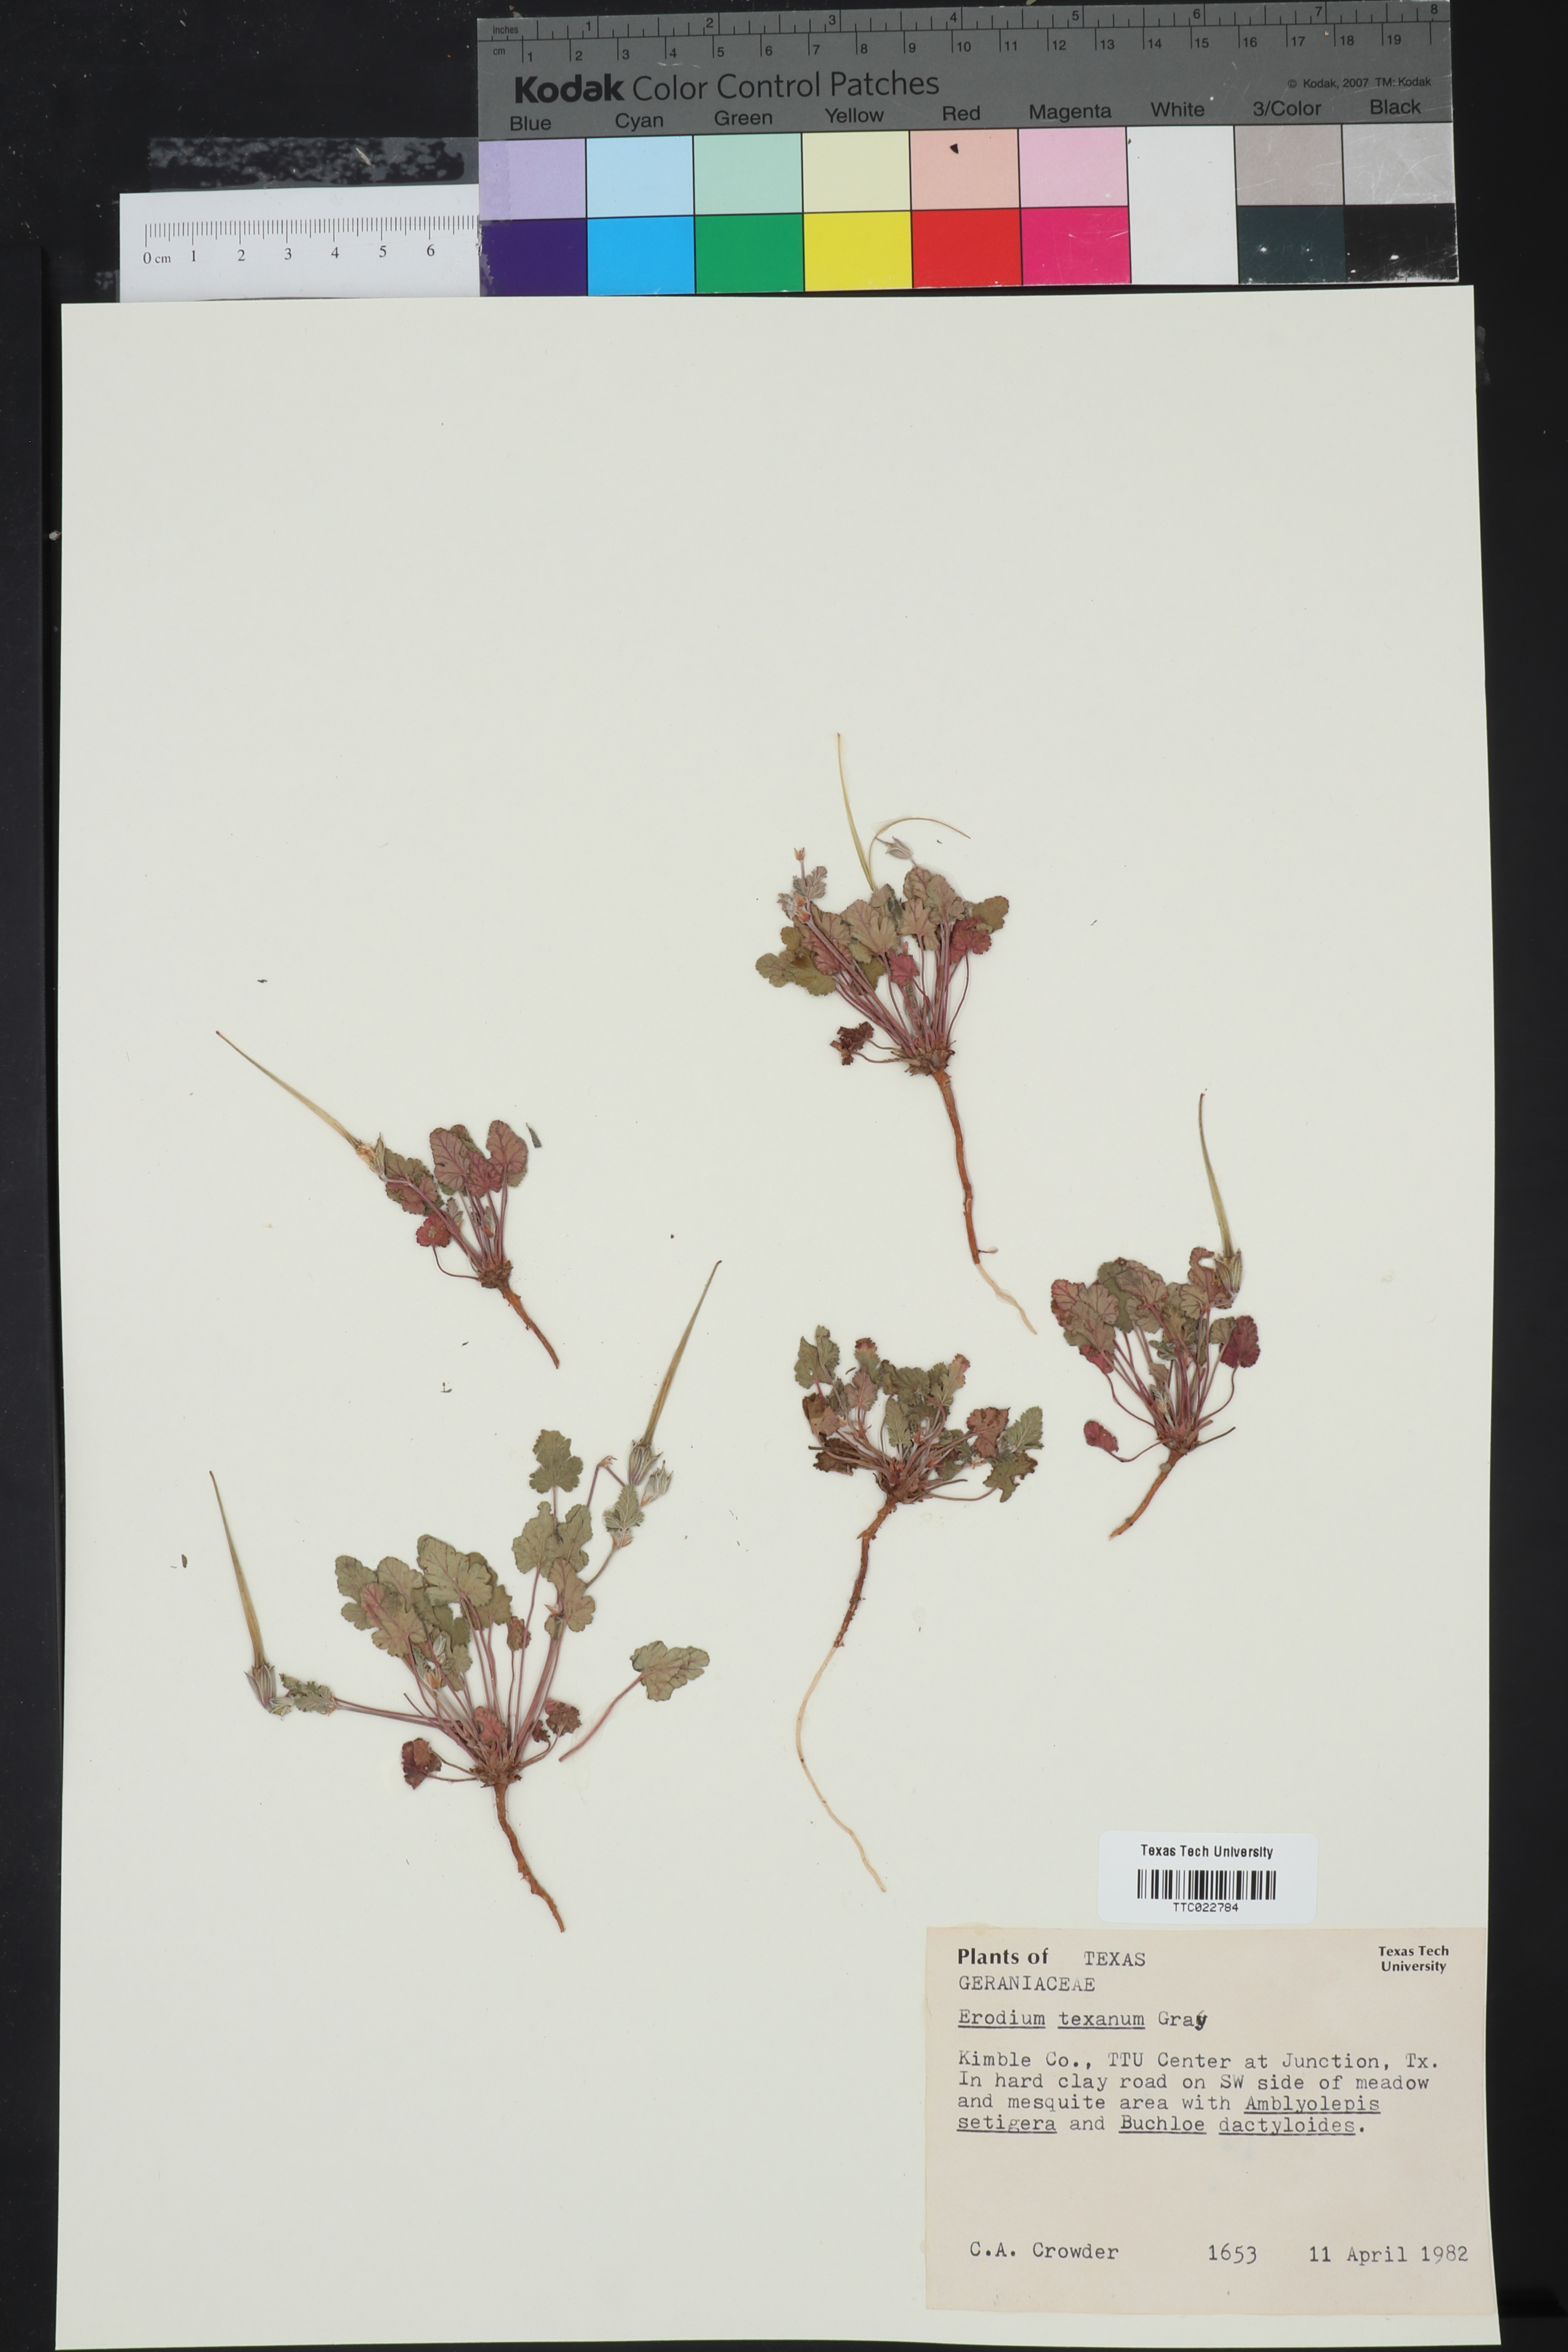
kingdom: Plantae
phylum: Tracheophyta
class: Magnoliopsida
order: Geraniales
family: Geraniaceae
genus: Erodium
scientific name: Erodium texanum
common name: Texas stork's-bill
